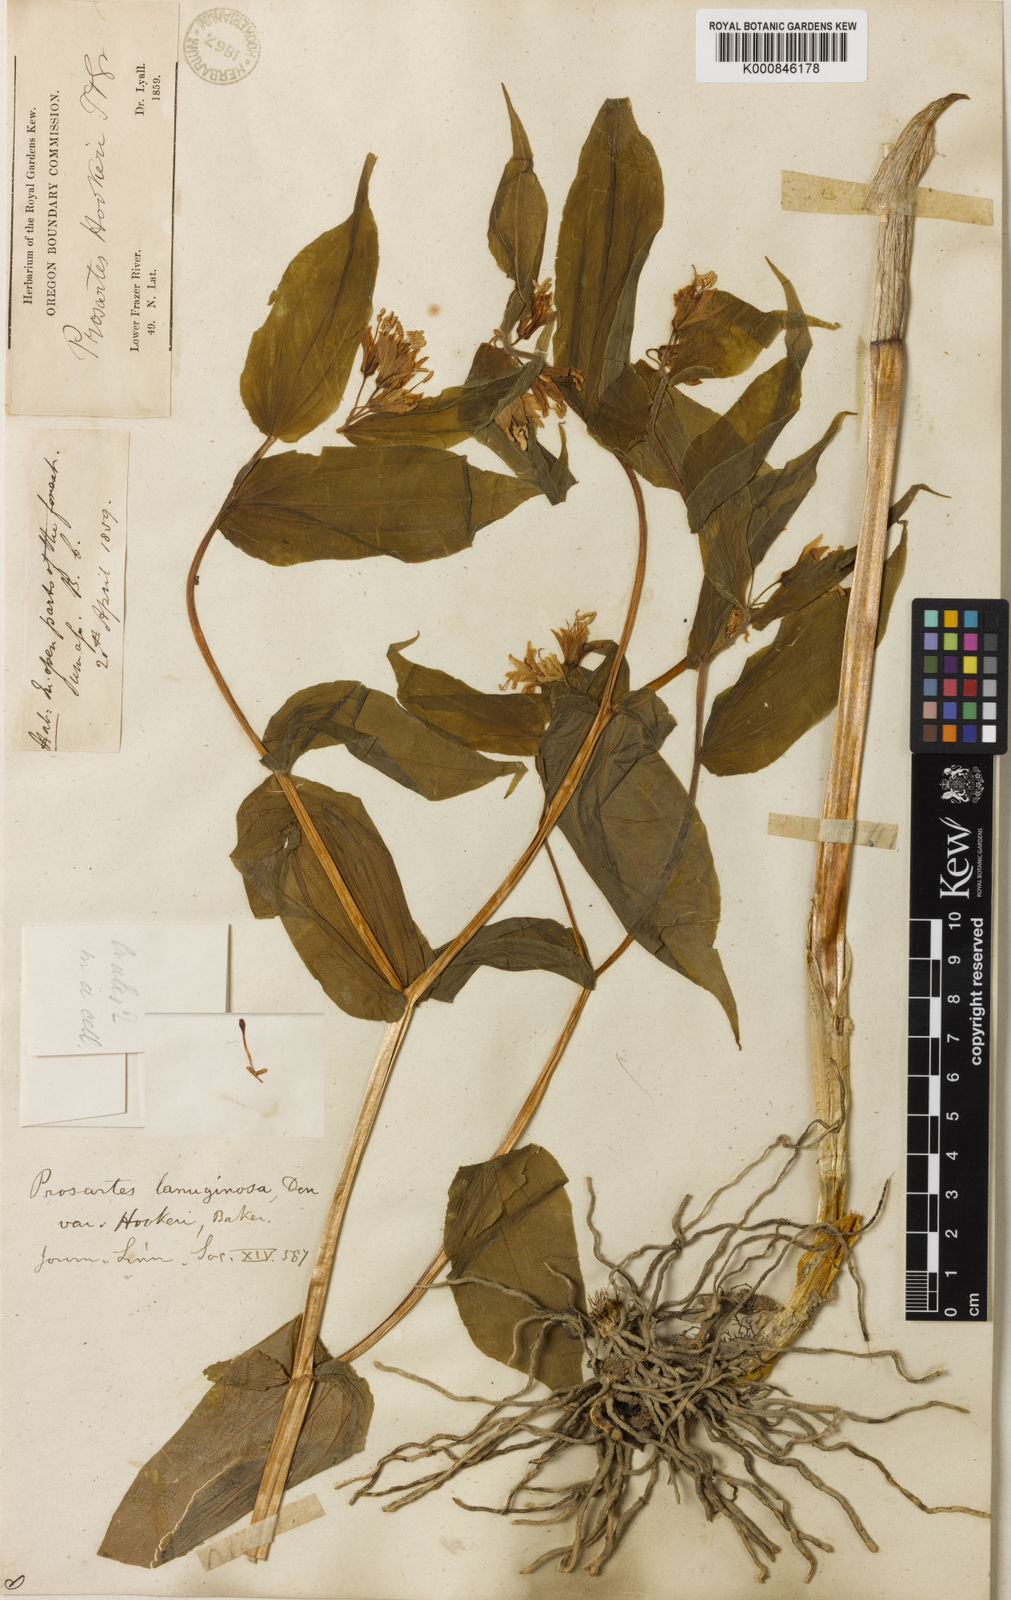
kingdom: Plantae
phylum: Tracheophyta
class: Liliopsida
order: Liliales
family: Liliaceae
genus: Prosartes
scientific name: Prosartes hookeri
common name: Fairy-bells
